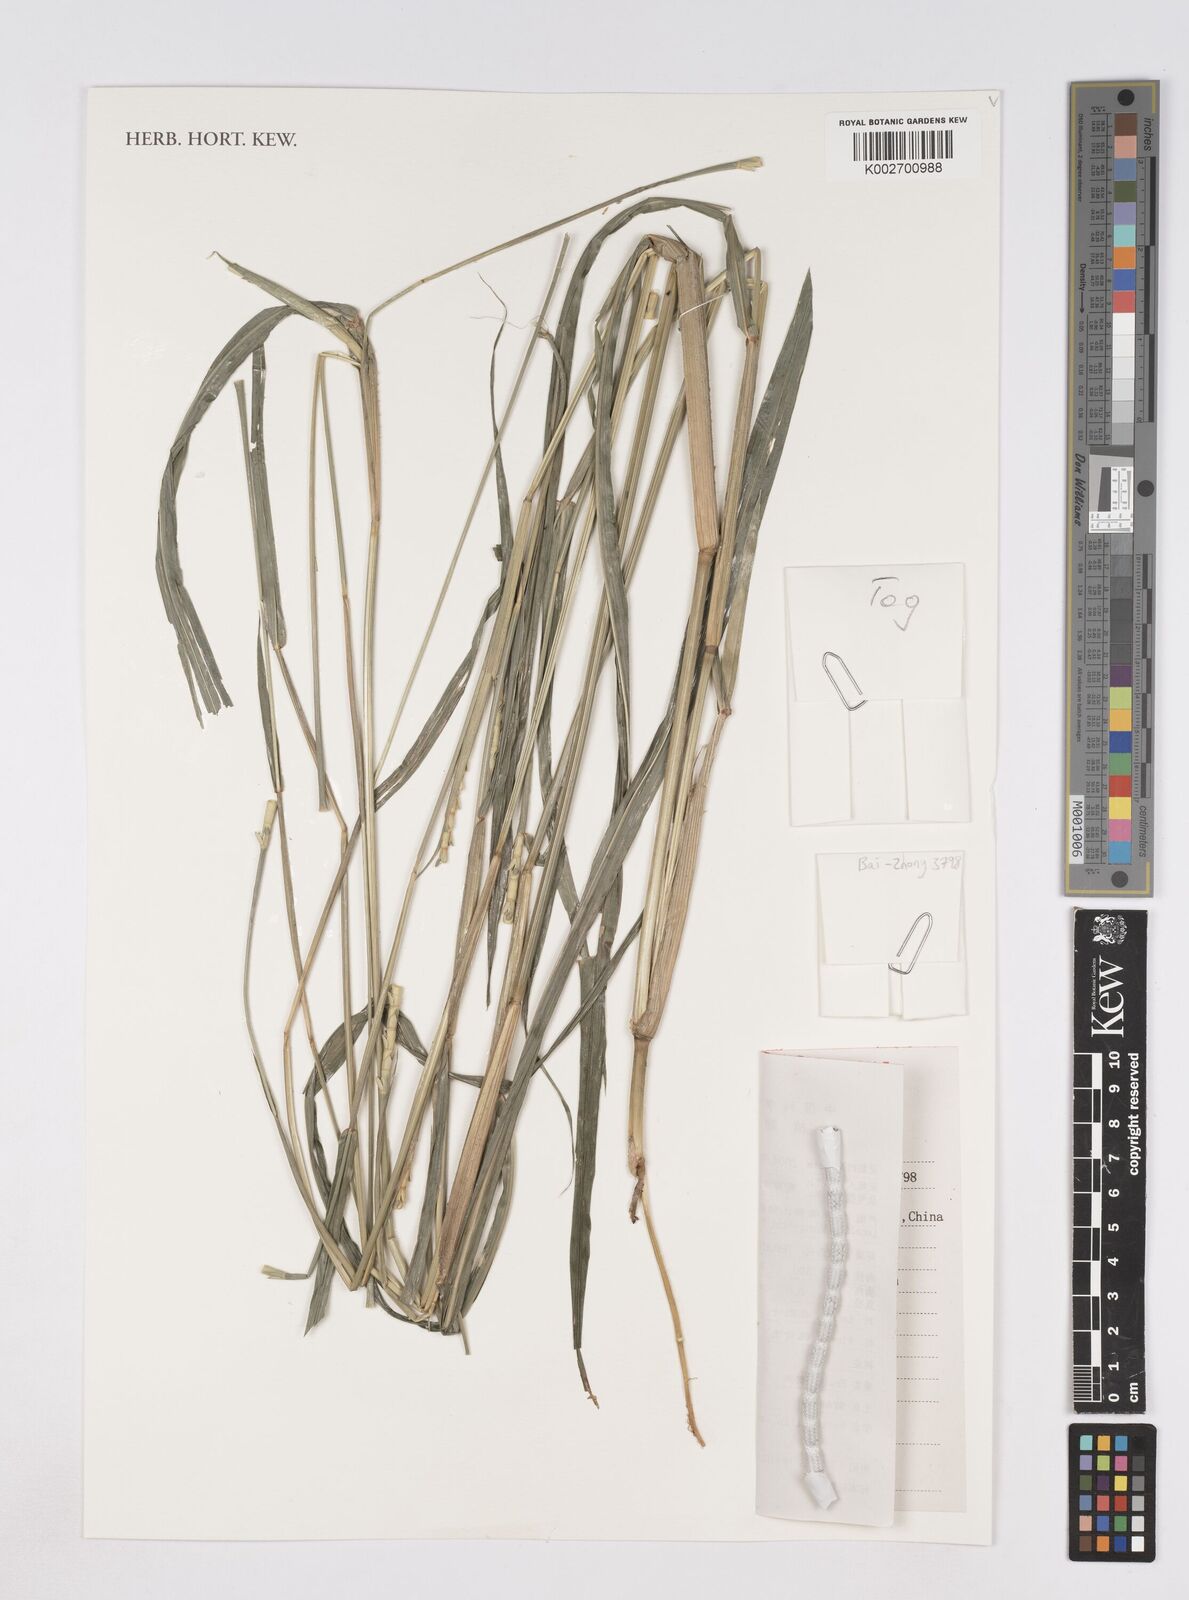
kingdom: Plantae
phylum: Tracheophyta
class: Liliopsida
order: Poales
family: Poaceae
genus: Ophiuros
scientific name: Ophiuros exaltatus
